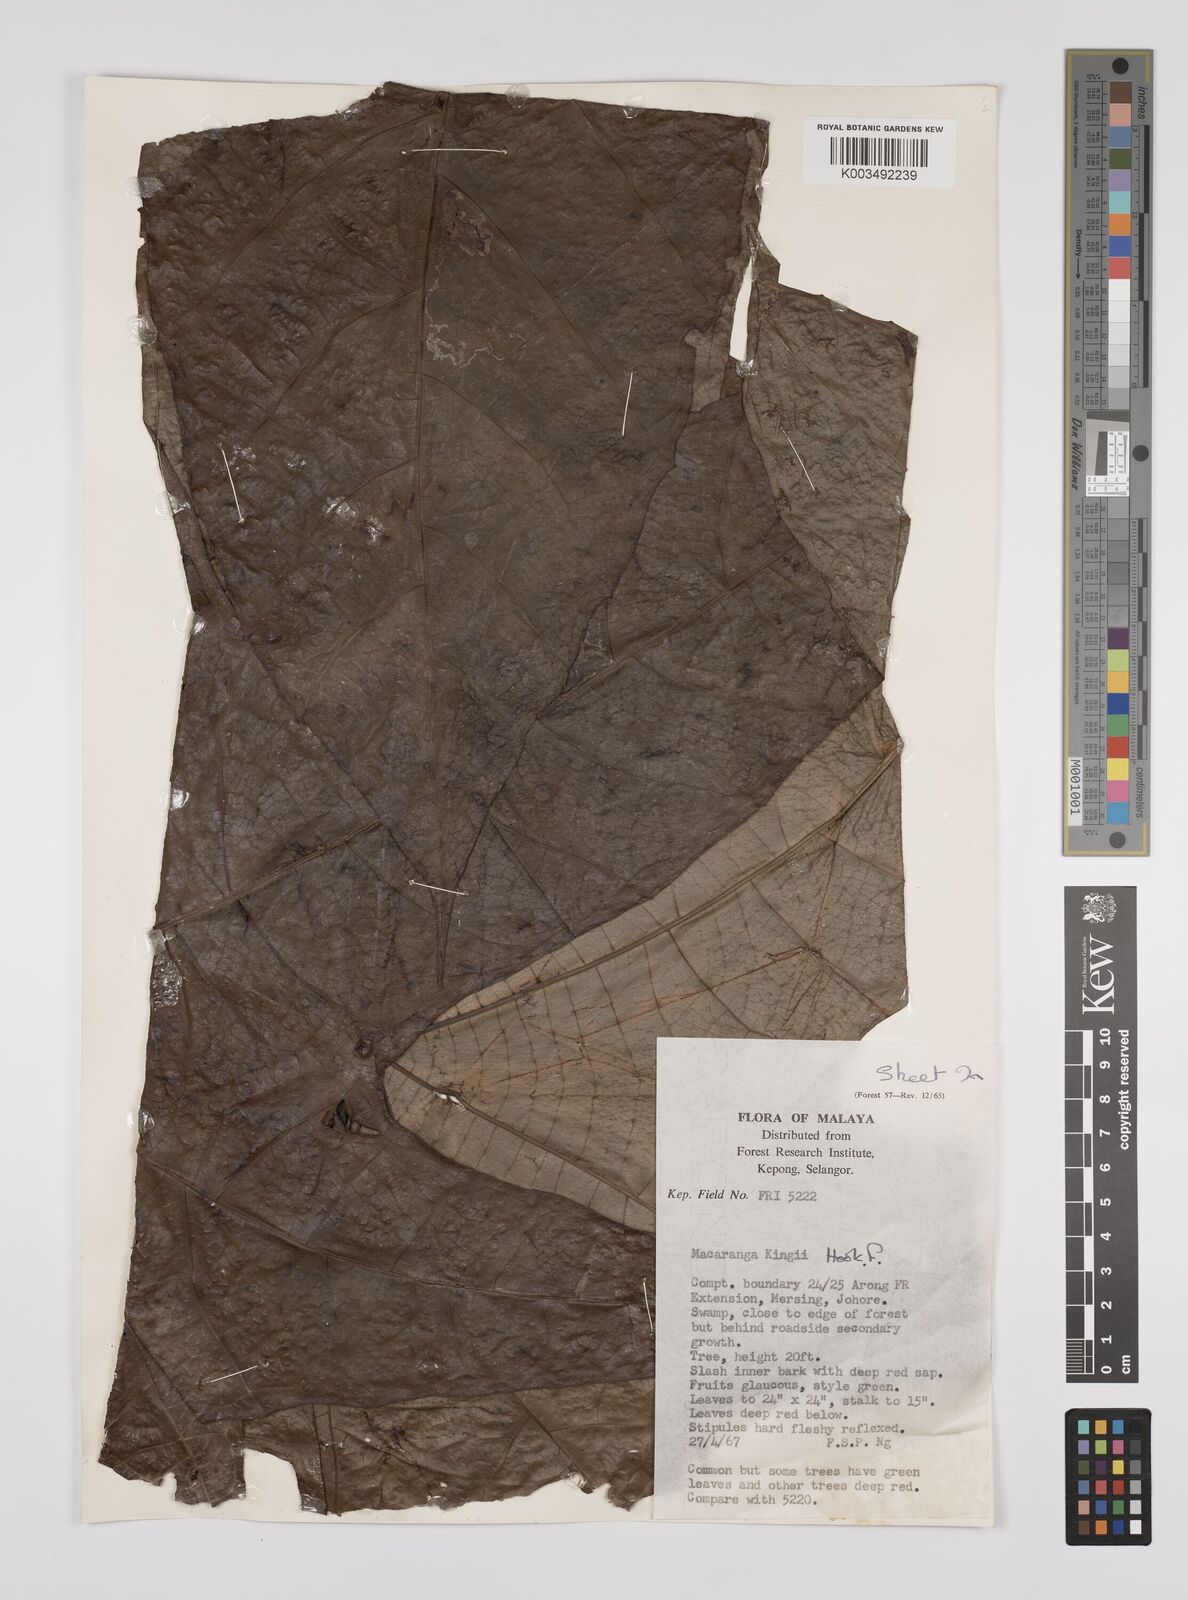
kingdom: Plantae
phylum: Tracheophyta
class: Magnoliopsida
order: Malpighiales
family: Euphorbiaceae
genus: Macaranga
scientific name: Macaranga kingii
